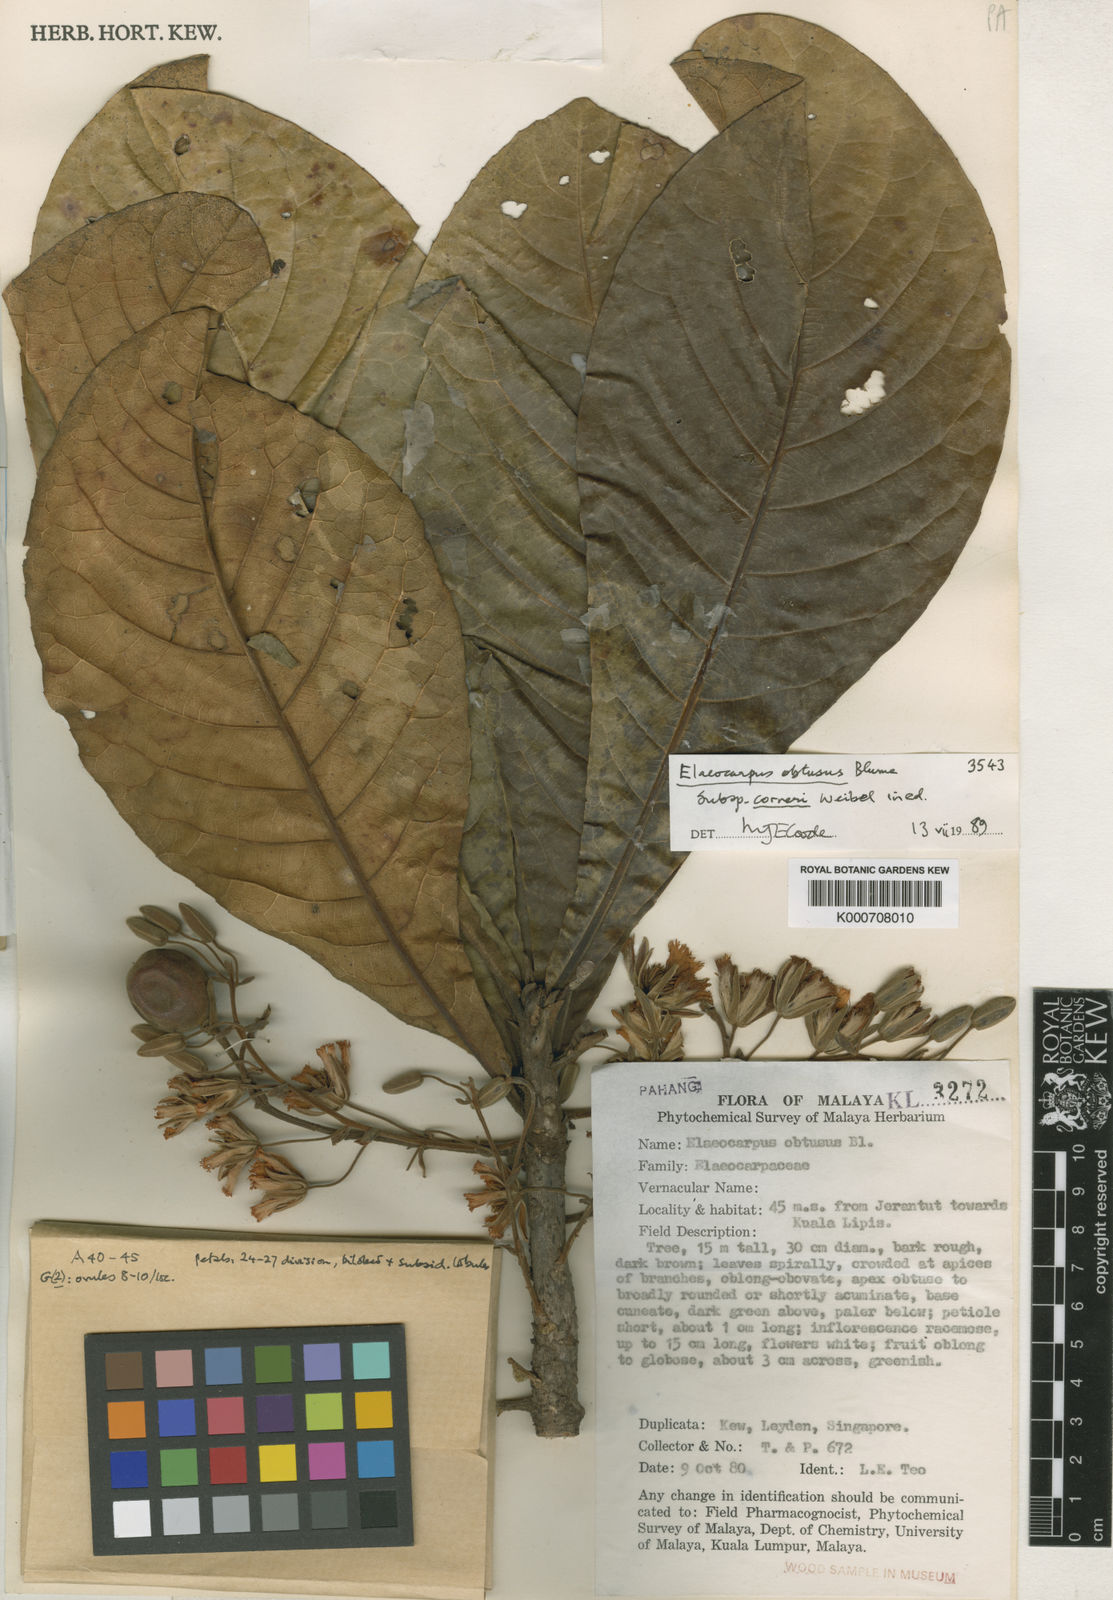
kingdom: Plantae
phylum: Tracheophyta
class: Magnoliopsida
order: Oxalidales
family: Elaeocarpaceae
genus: Elaeocarpus
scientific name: Elaeocarpus obtusus
